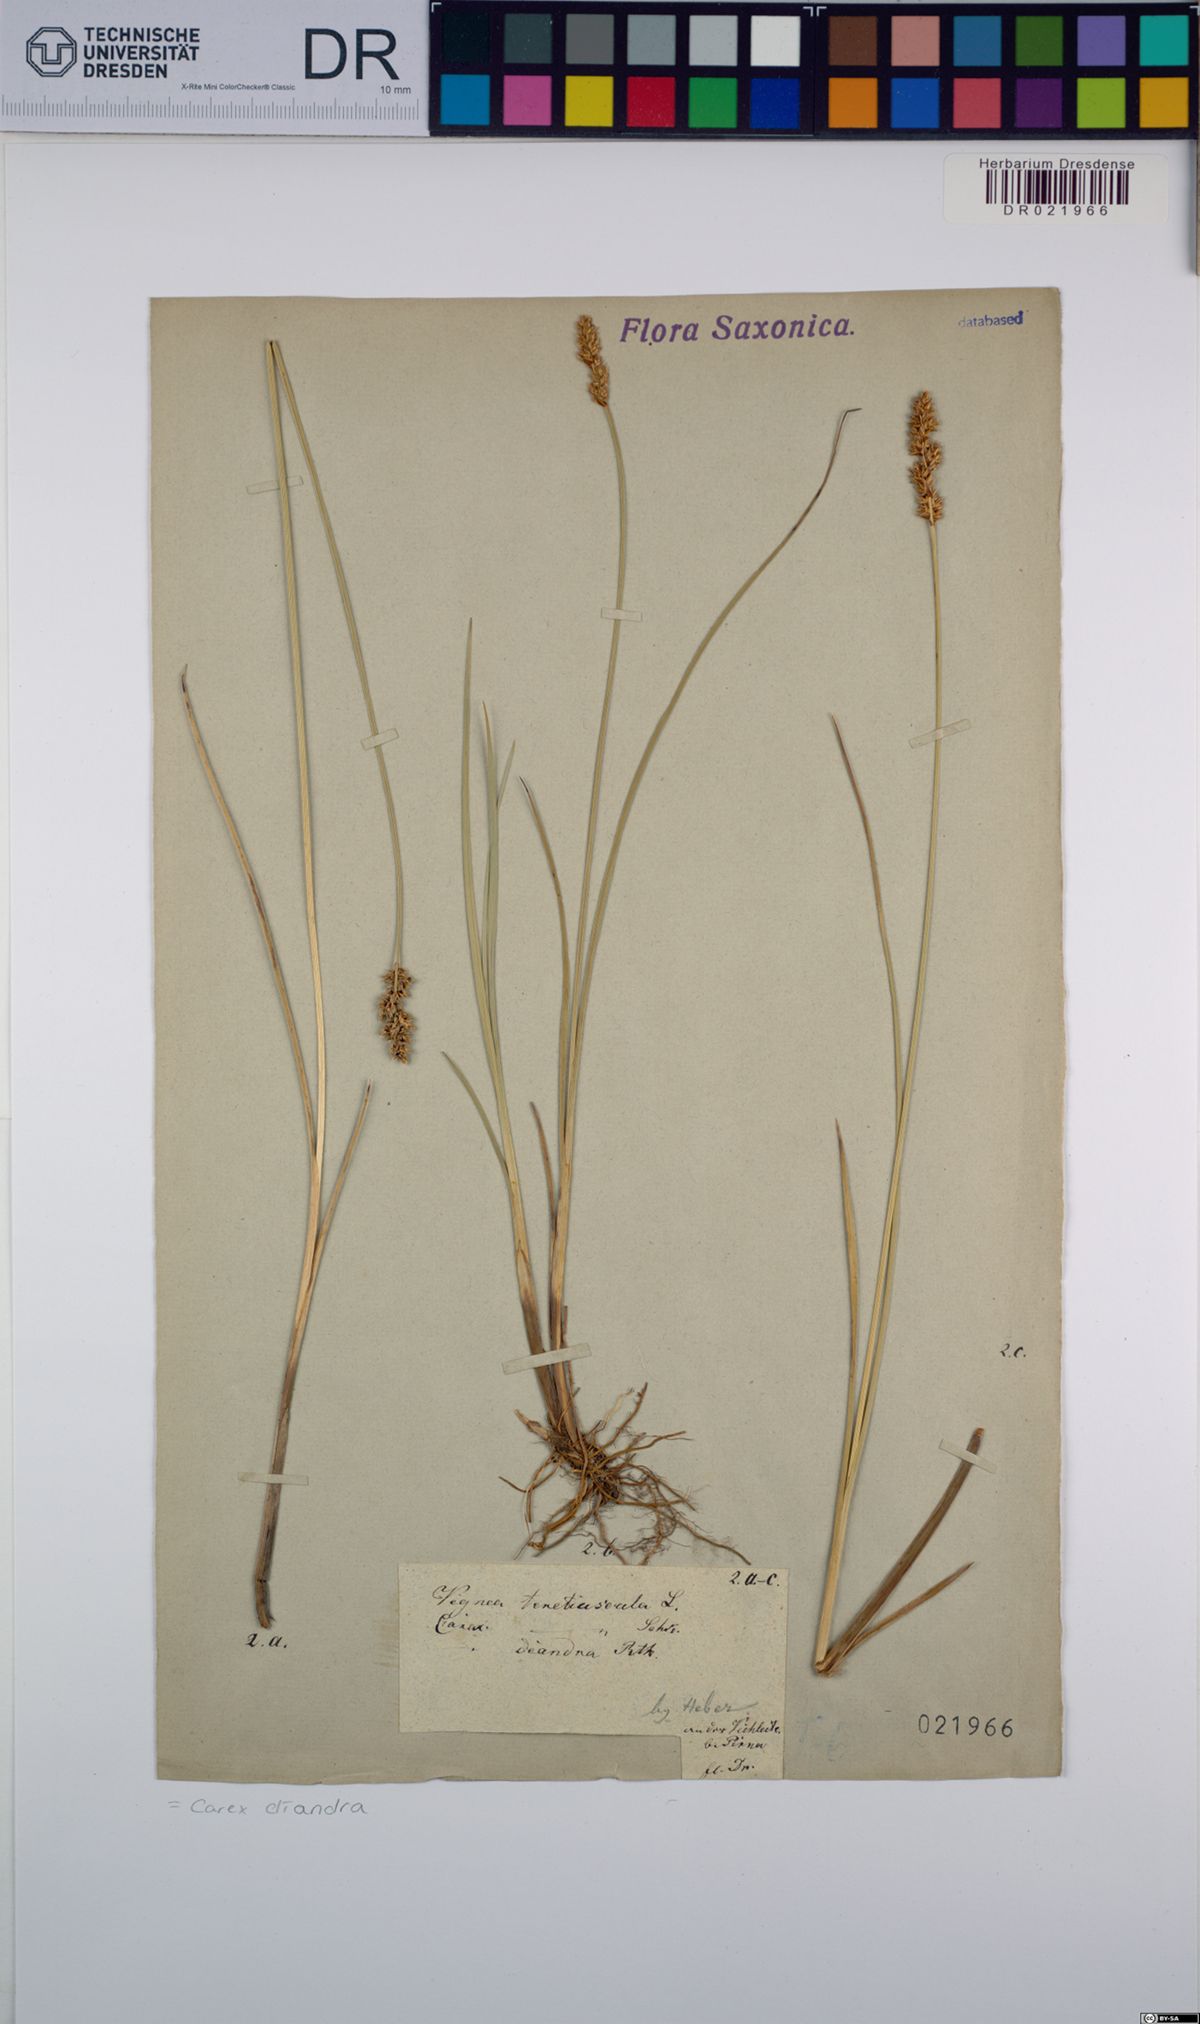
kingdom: Plantae
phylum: Tracheophyta
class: Liliopsida
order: Poales
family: Cyperaceae
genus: Carex
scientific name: Carex diandra
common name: Lesser tussock-sedge
